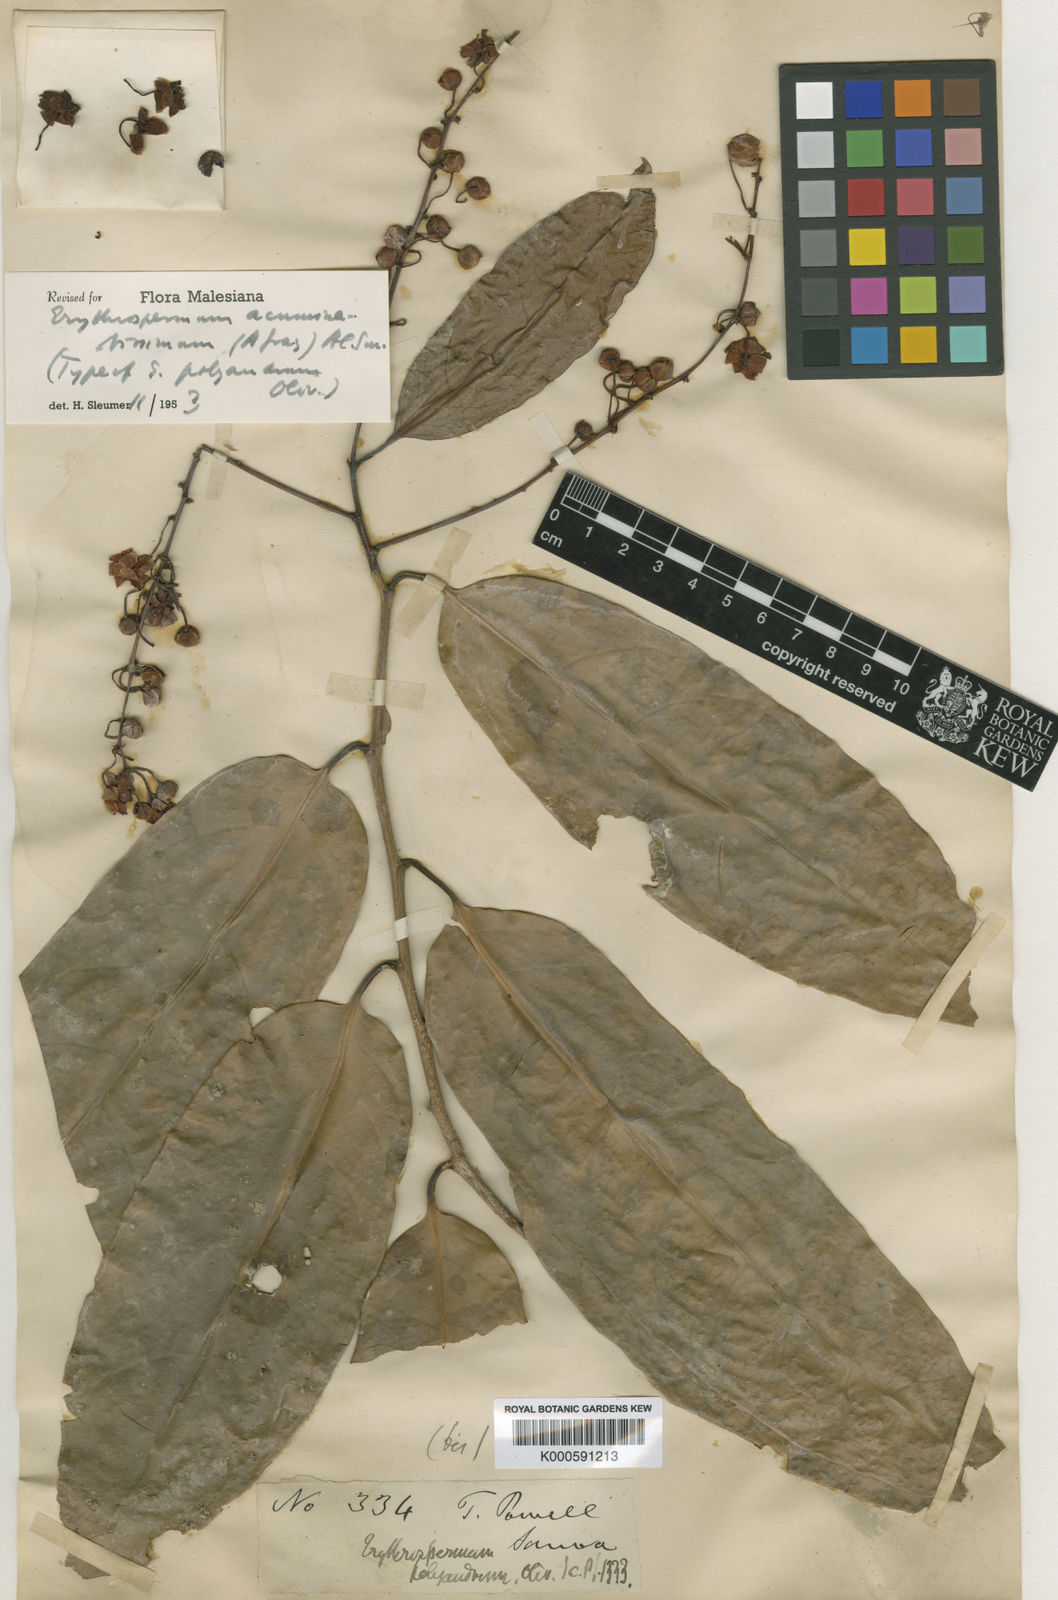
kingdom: Plantae
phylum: Tracheophyta
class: Magnoliopsida
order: Malpighiales
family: Achariaceae
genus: Erythrospermum
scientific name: Erythrospermum acuminatissimum
